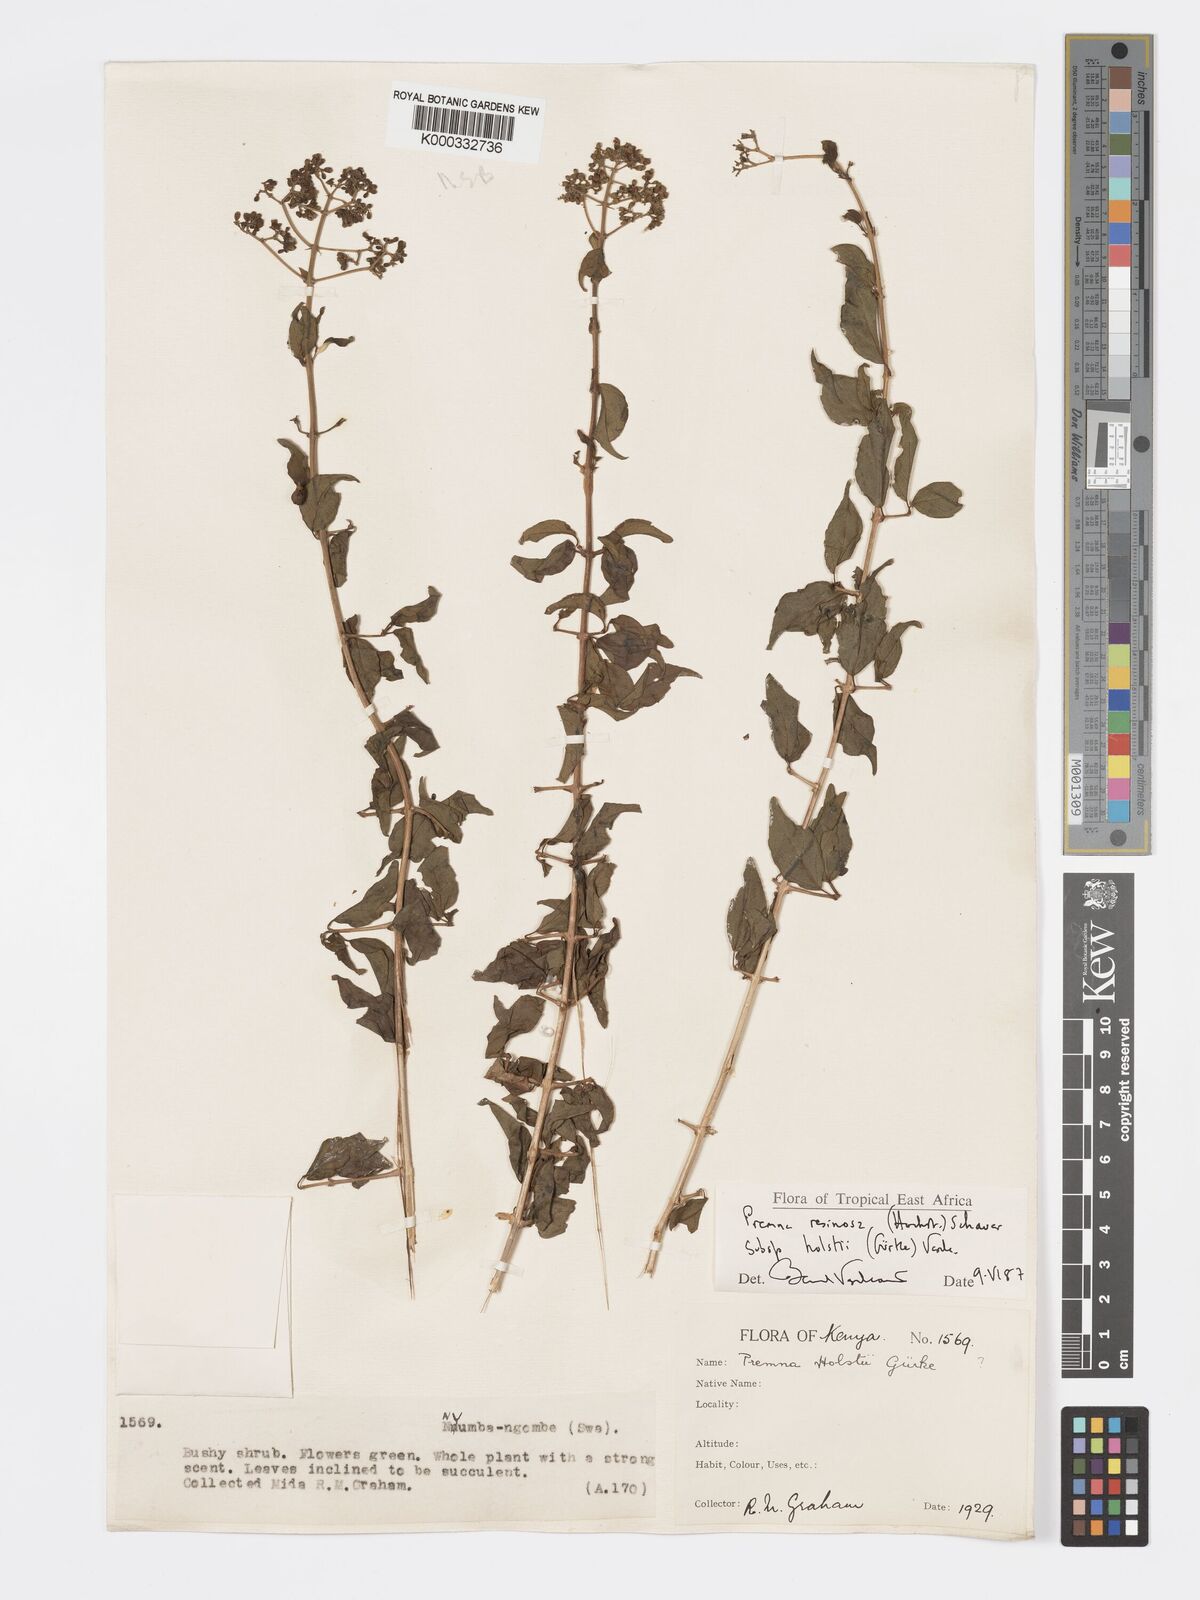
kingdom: Plantae
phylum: Tracheophyta
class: Magnoliopsida
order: Lamiales
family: Lamiaceae
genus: Premna
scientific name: Premna resinosa
